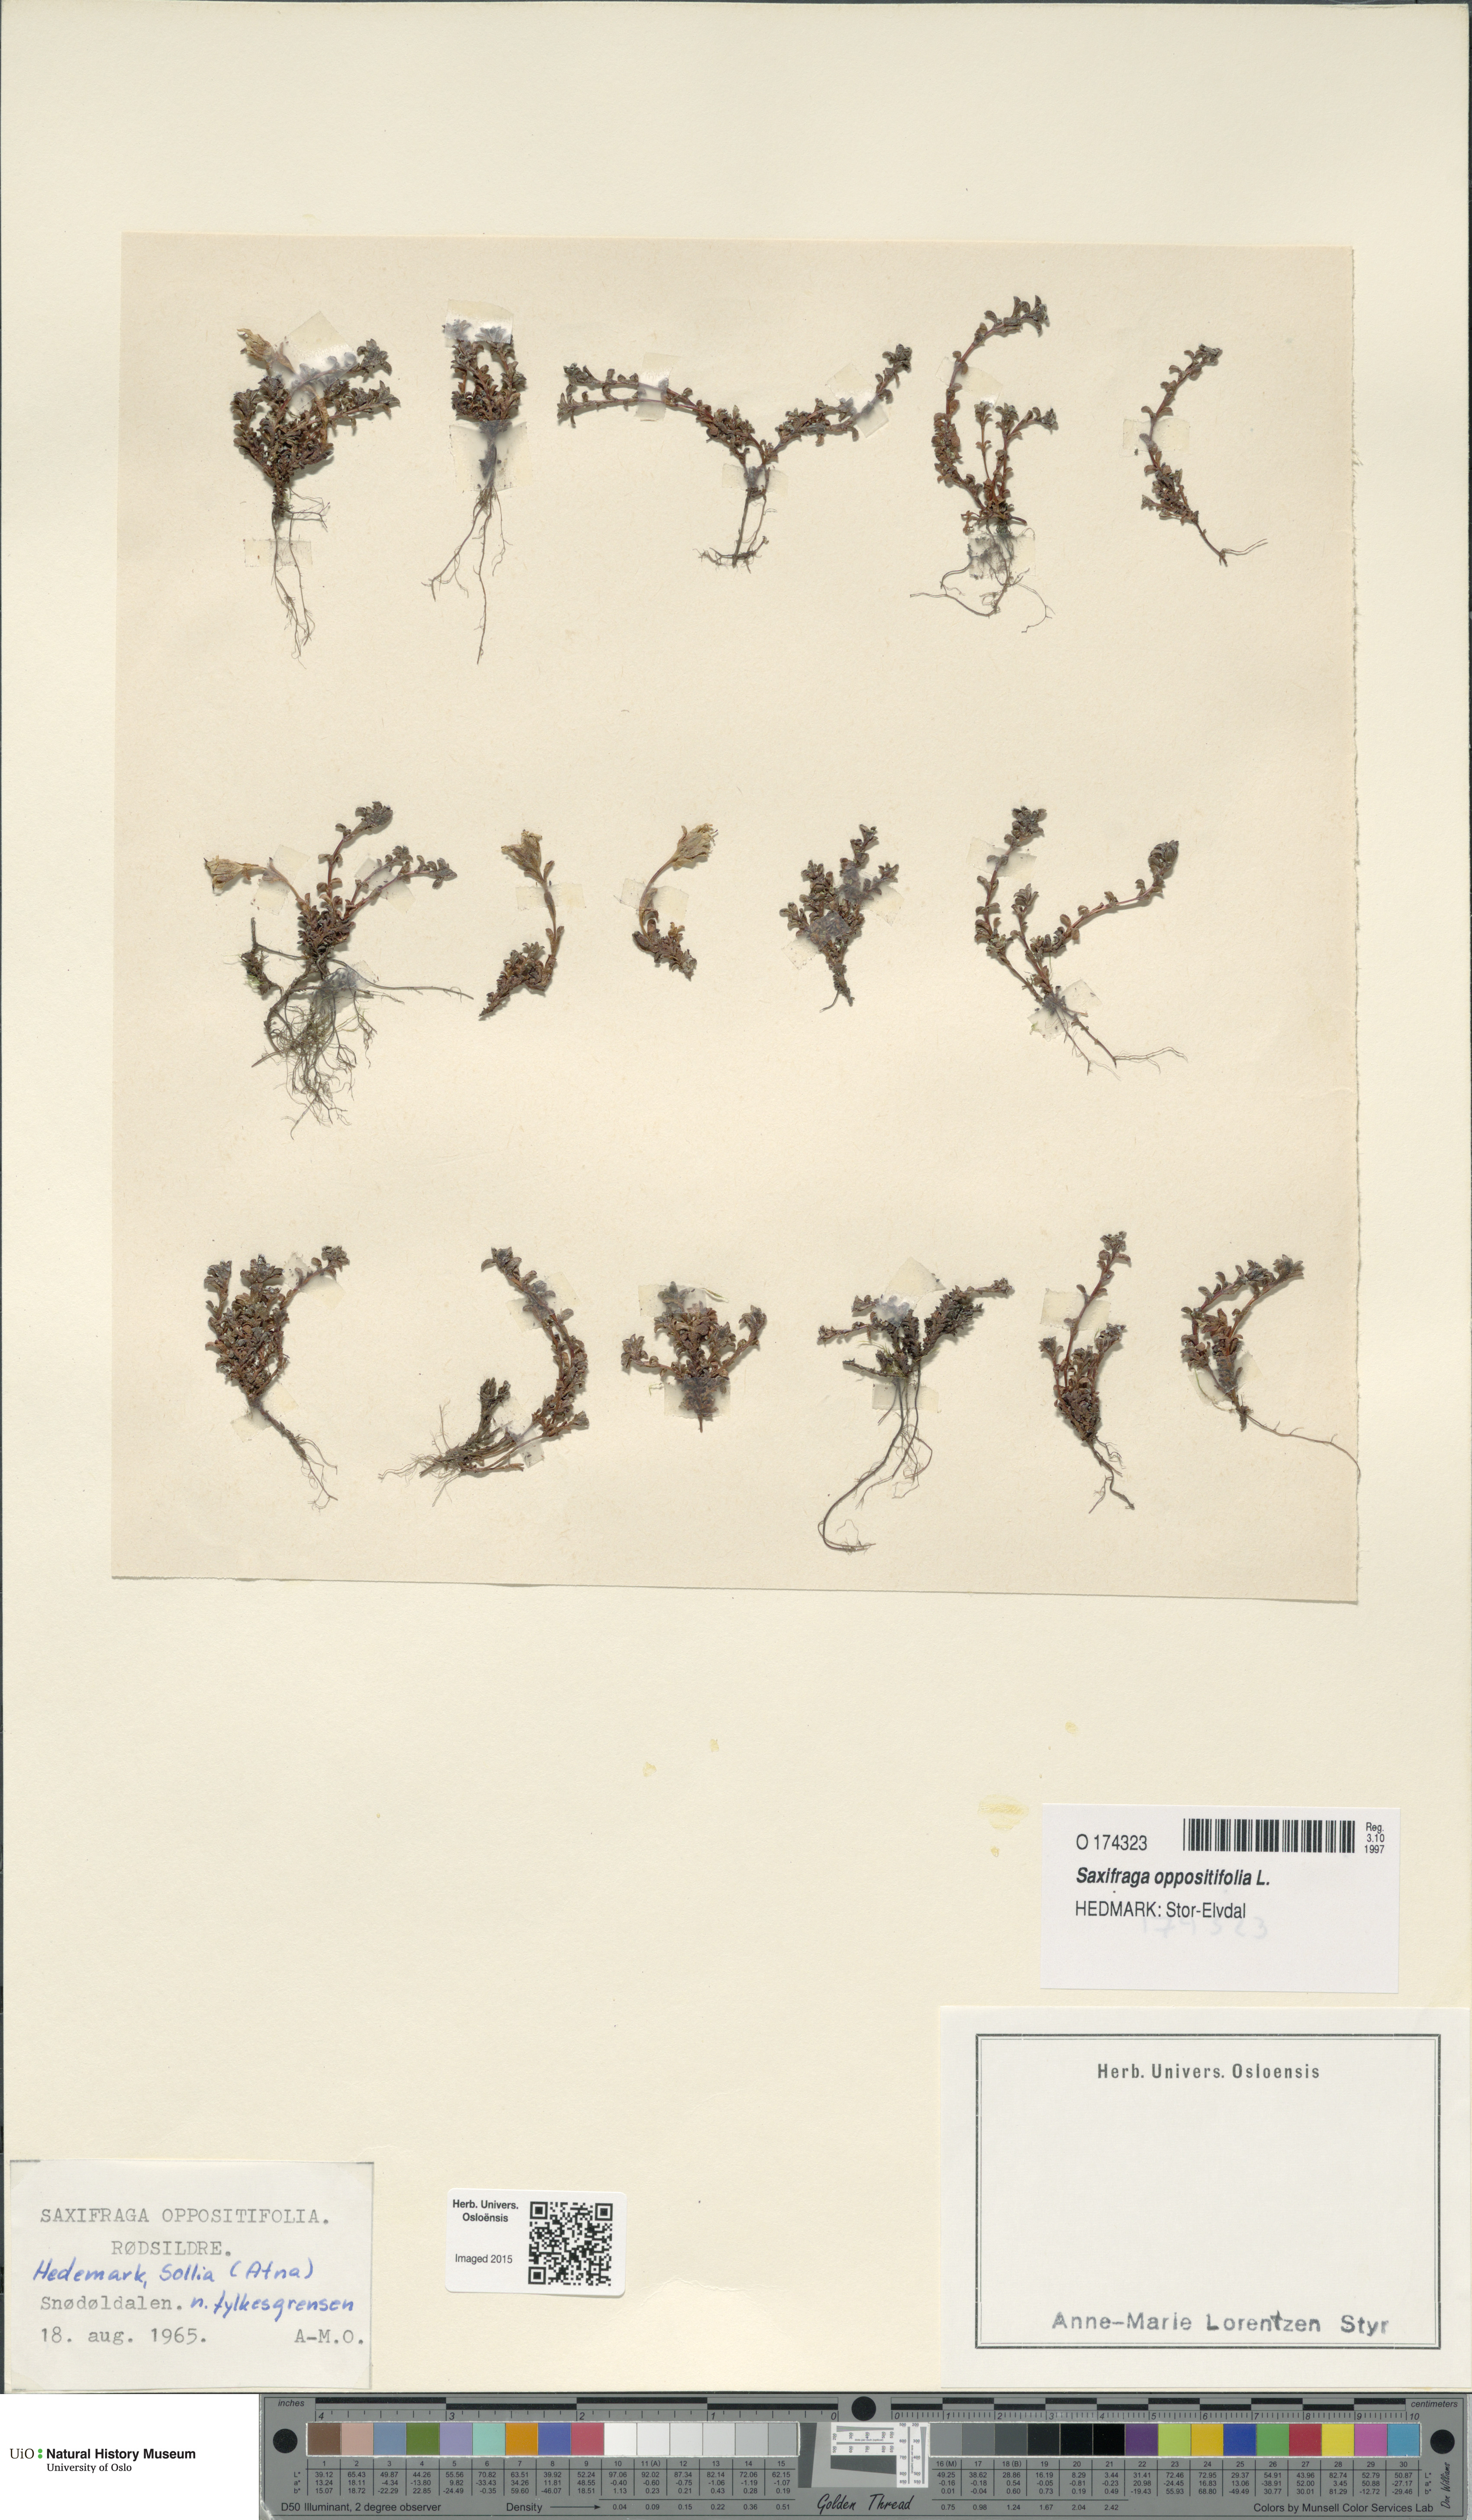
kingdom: Plantae
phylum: Tracheophyta
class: Magnoliopsida
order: Saxifragales
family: Saxifragaceae
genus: Saxifraga
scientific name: Saxifraga oppositifolia
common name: Purple saxifrage
